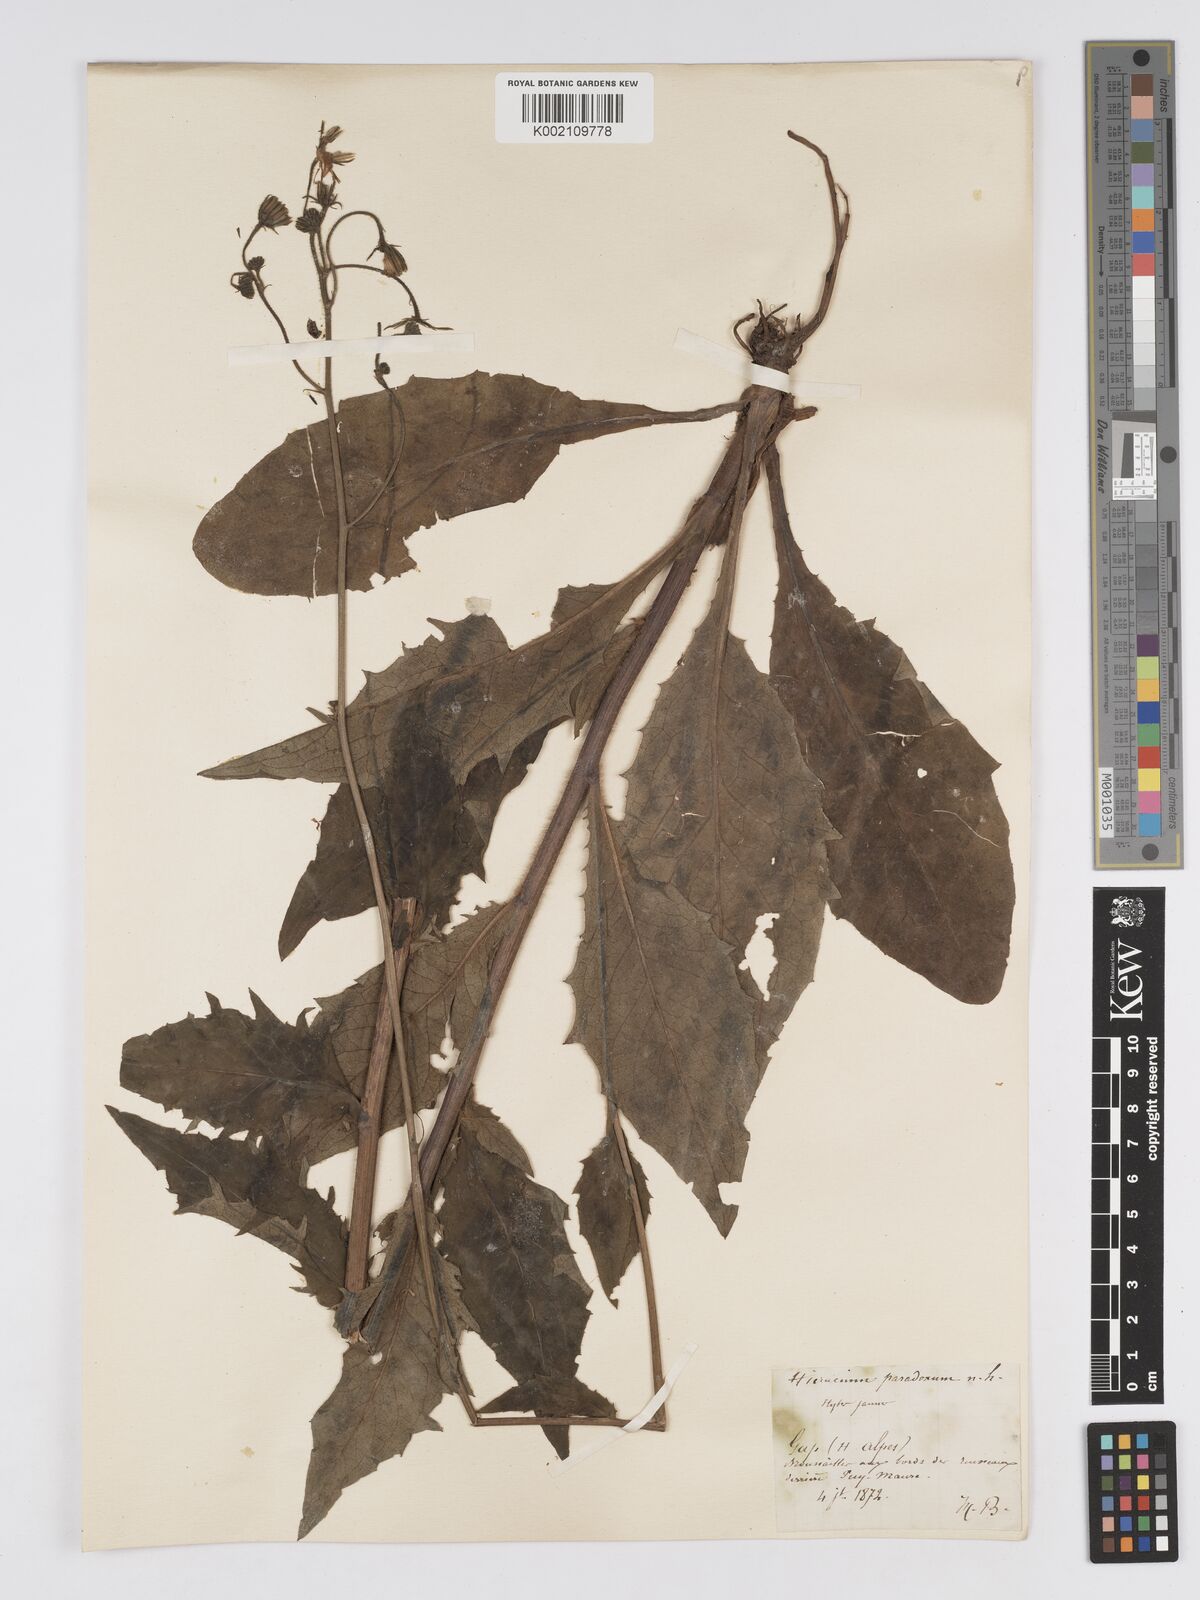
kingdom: Plantae
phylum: Tracheophyta
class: Magnoliopsida
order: Asterales
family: Asteraceae
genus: Hieracium
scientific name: Hieracium australe
